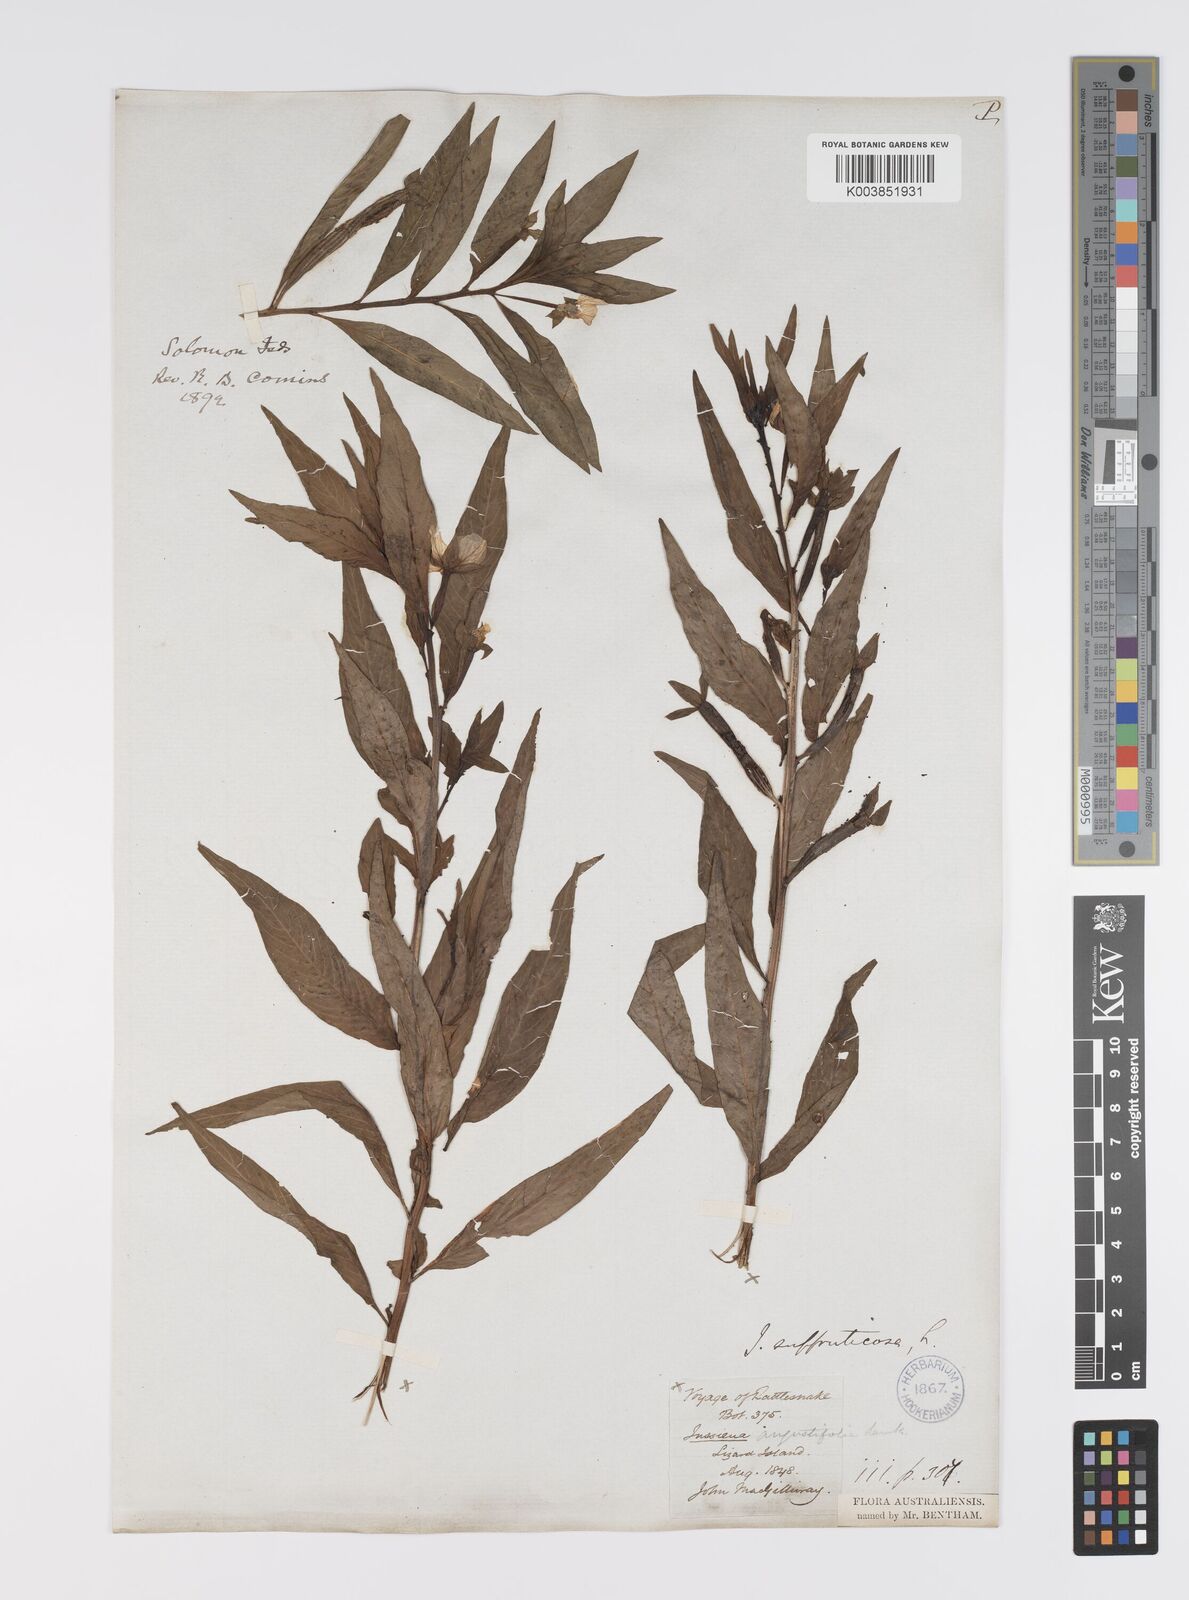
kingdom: Plantae
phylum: Tracheophyta
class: Magnoliopsida
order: Myrtales
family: Onagraceae
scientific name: Onagraceae
